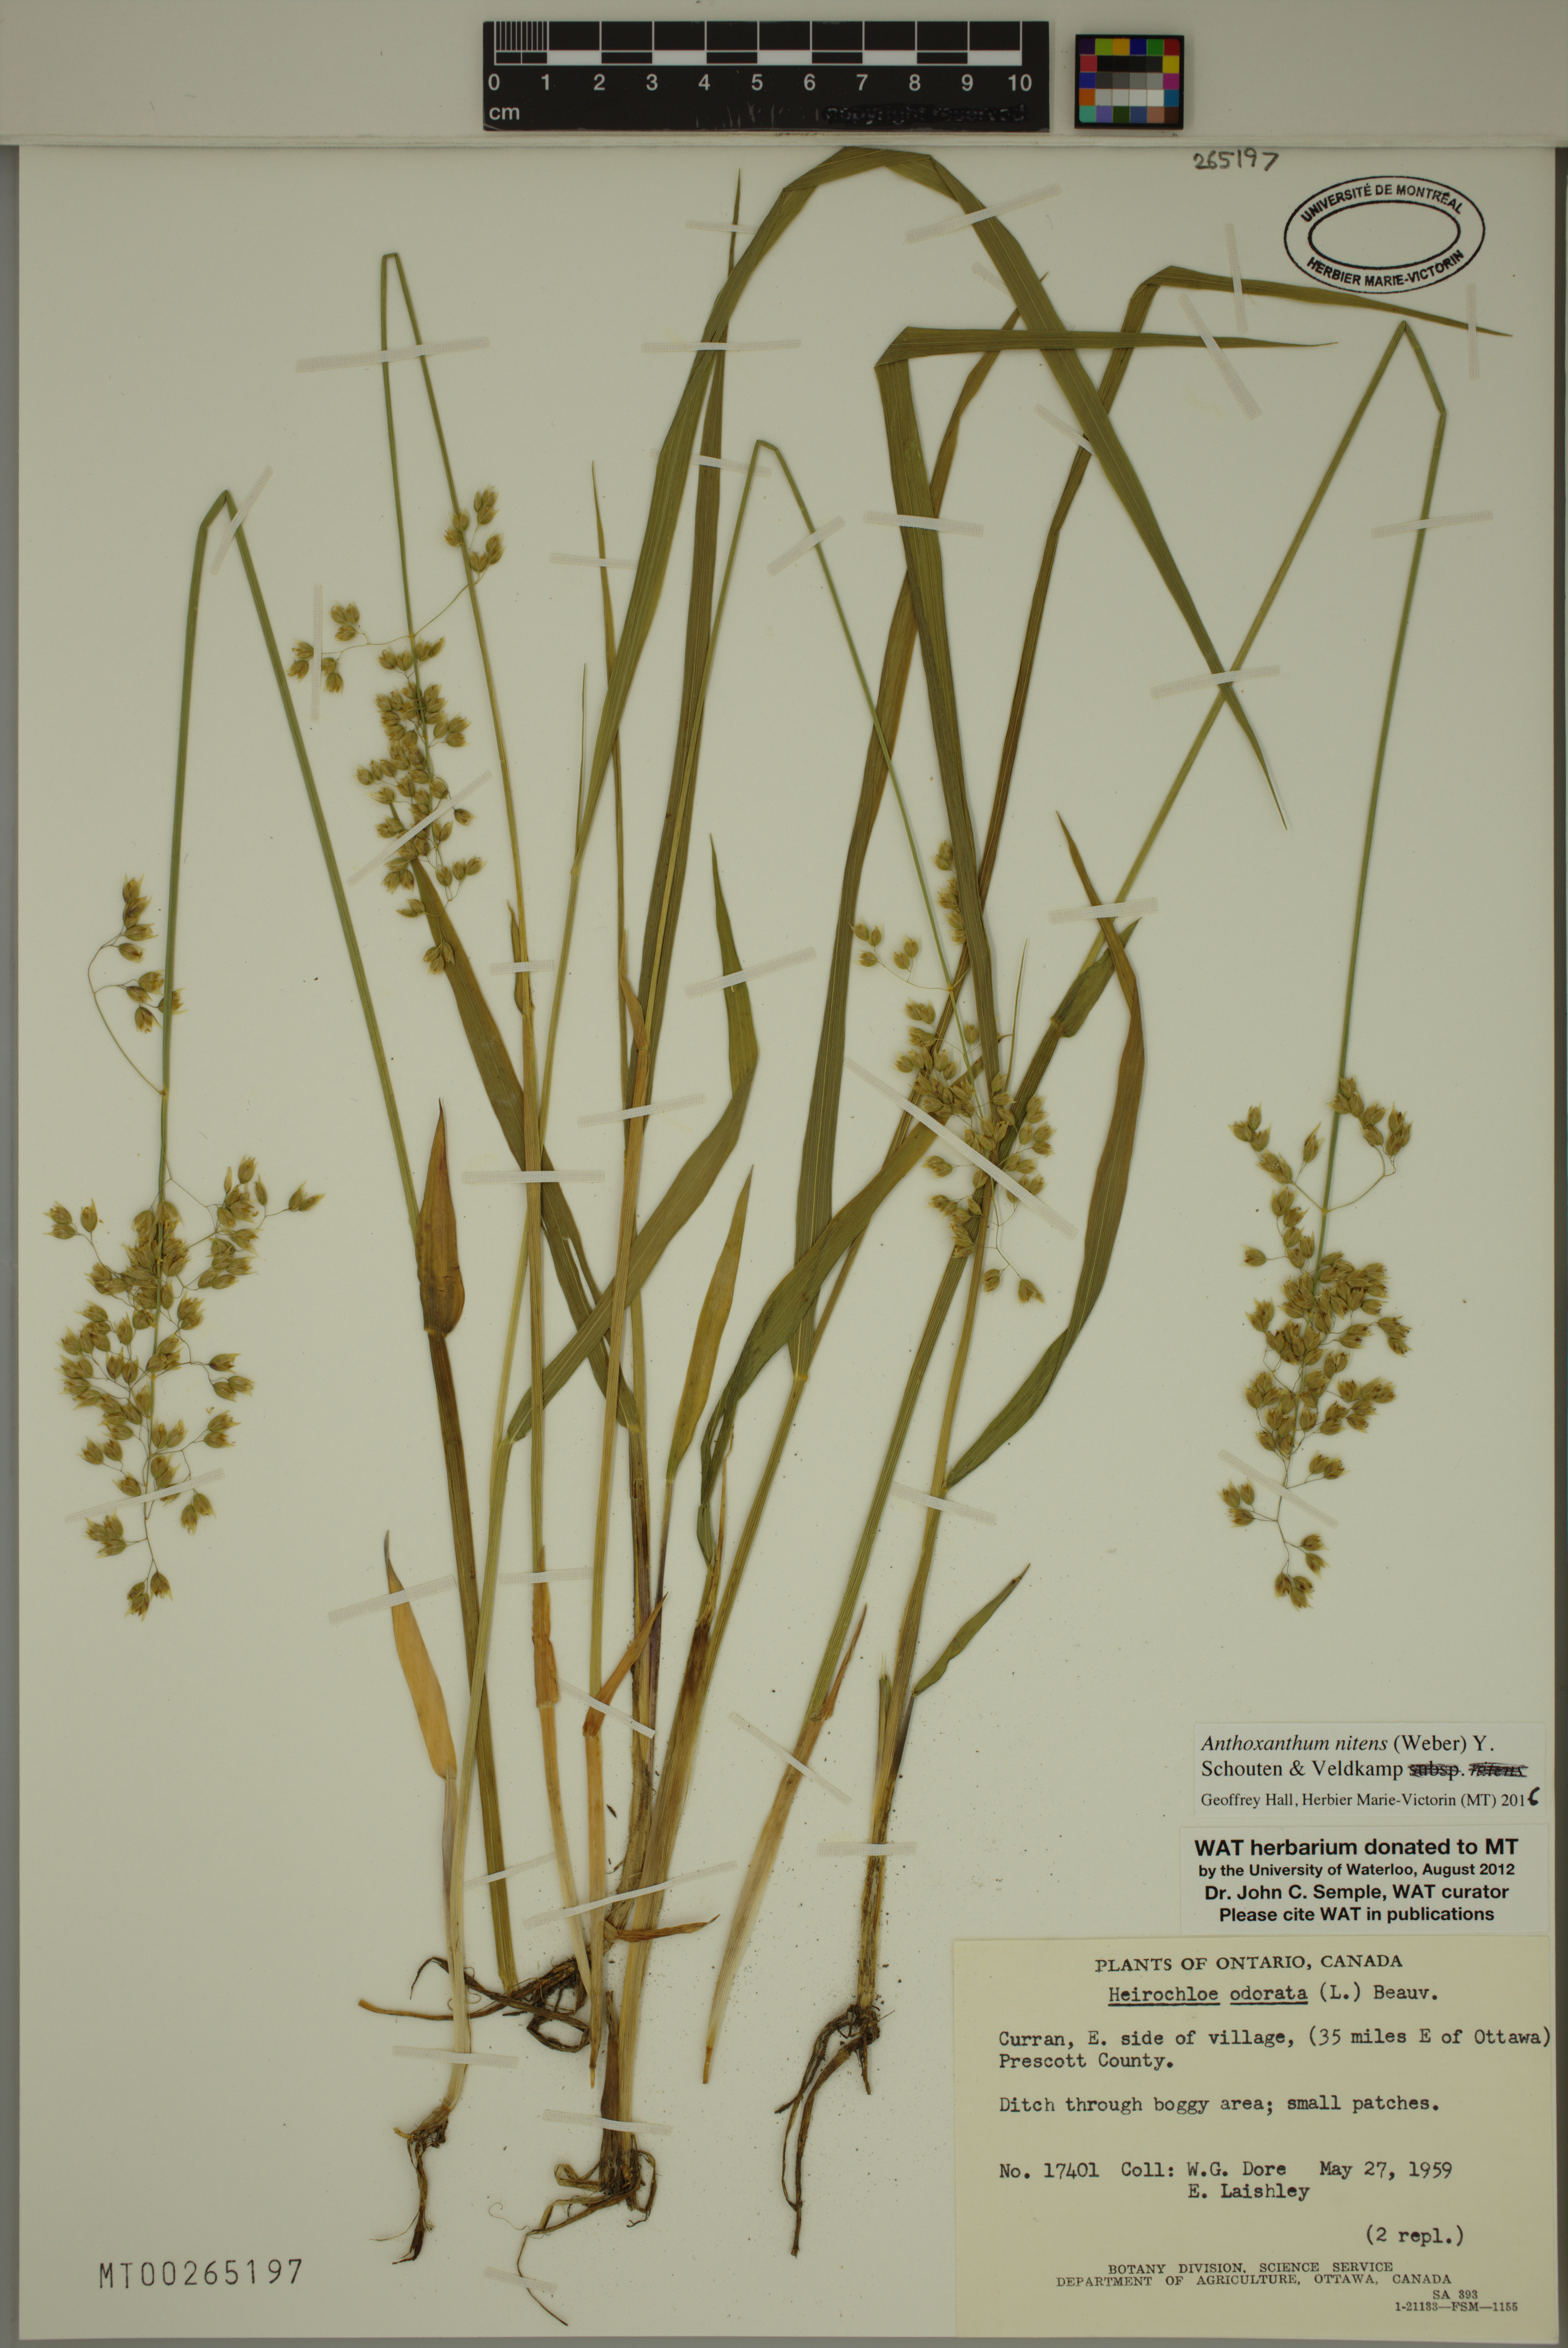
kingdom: Plantae
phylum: Tracheophyta
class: Liliopsida
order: Poales
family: Poaceae
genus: Anthoxanthum
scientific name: Anthoxanthum nitens
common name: Holy grass
